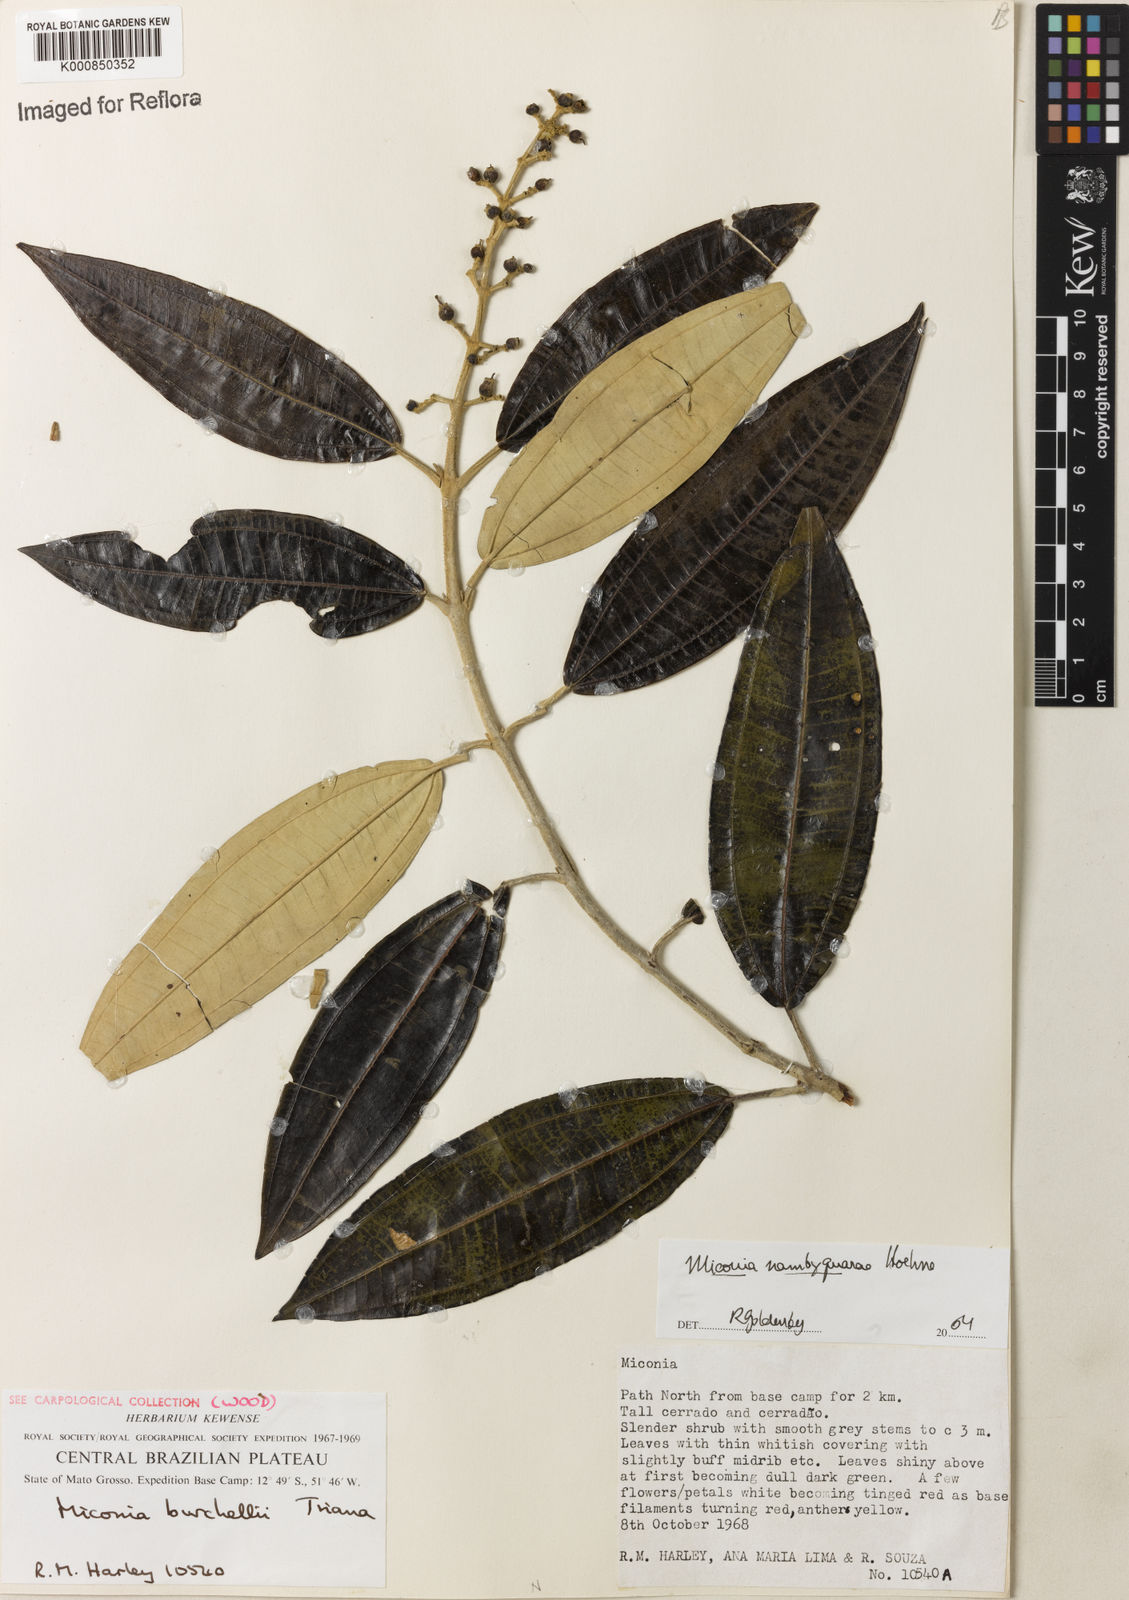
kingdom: Plantae
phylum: Tracheophyta
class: Magnoliopsida
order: Myrtales
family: Melastomataceae
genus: Miconia
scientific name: Miconia nambyquarae
